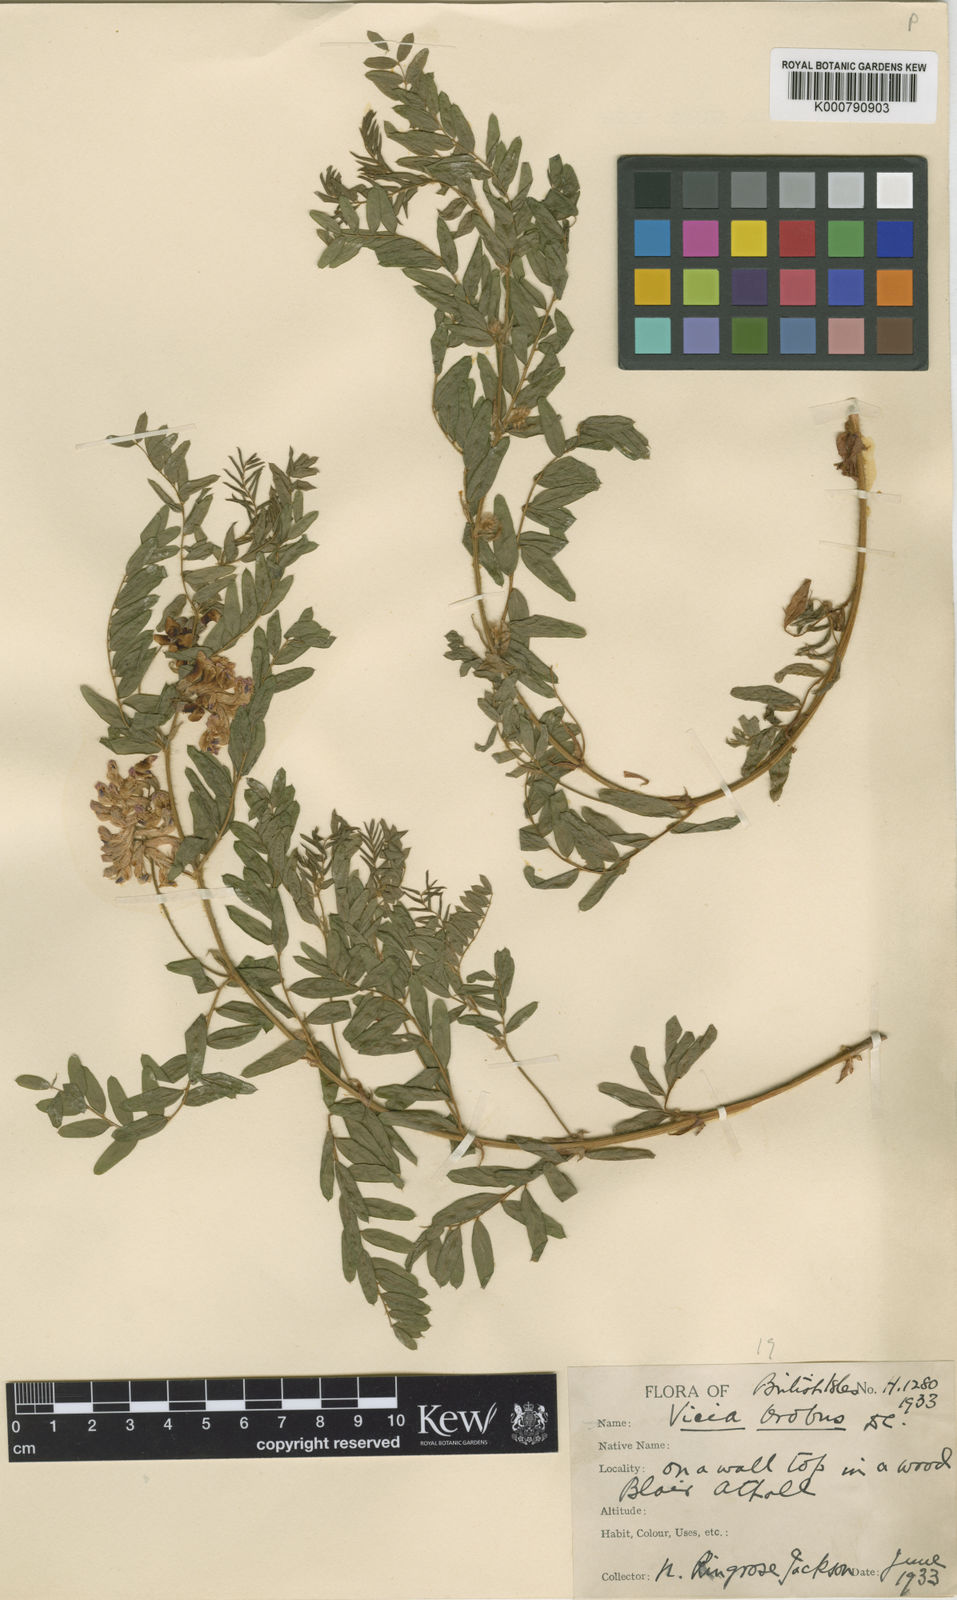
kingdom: Plantae
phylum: Tracheophyta
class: Magnoliopsida
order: Fabales
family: Fabaceae
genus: Vicia
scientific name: Vicia orobus
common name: Wood bitter-vetch
